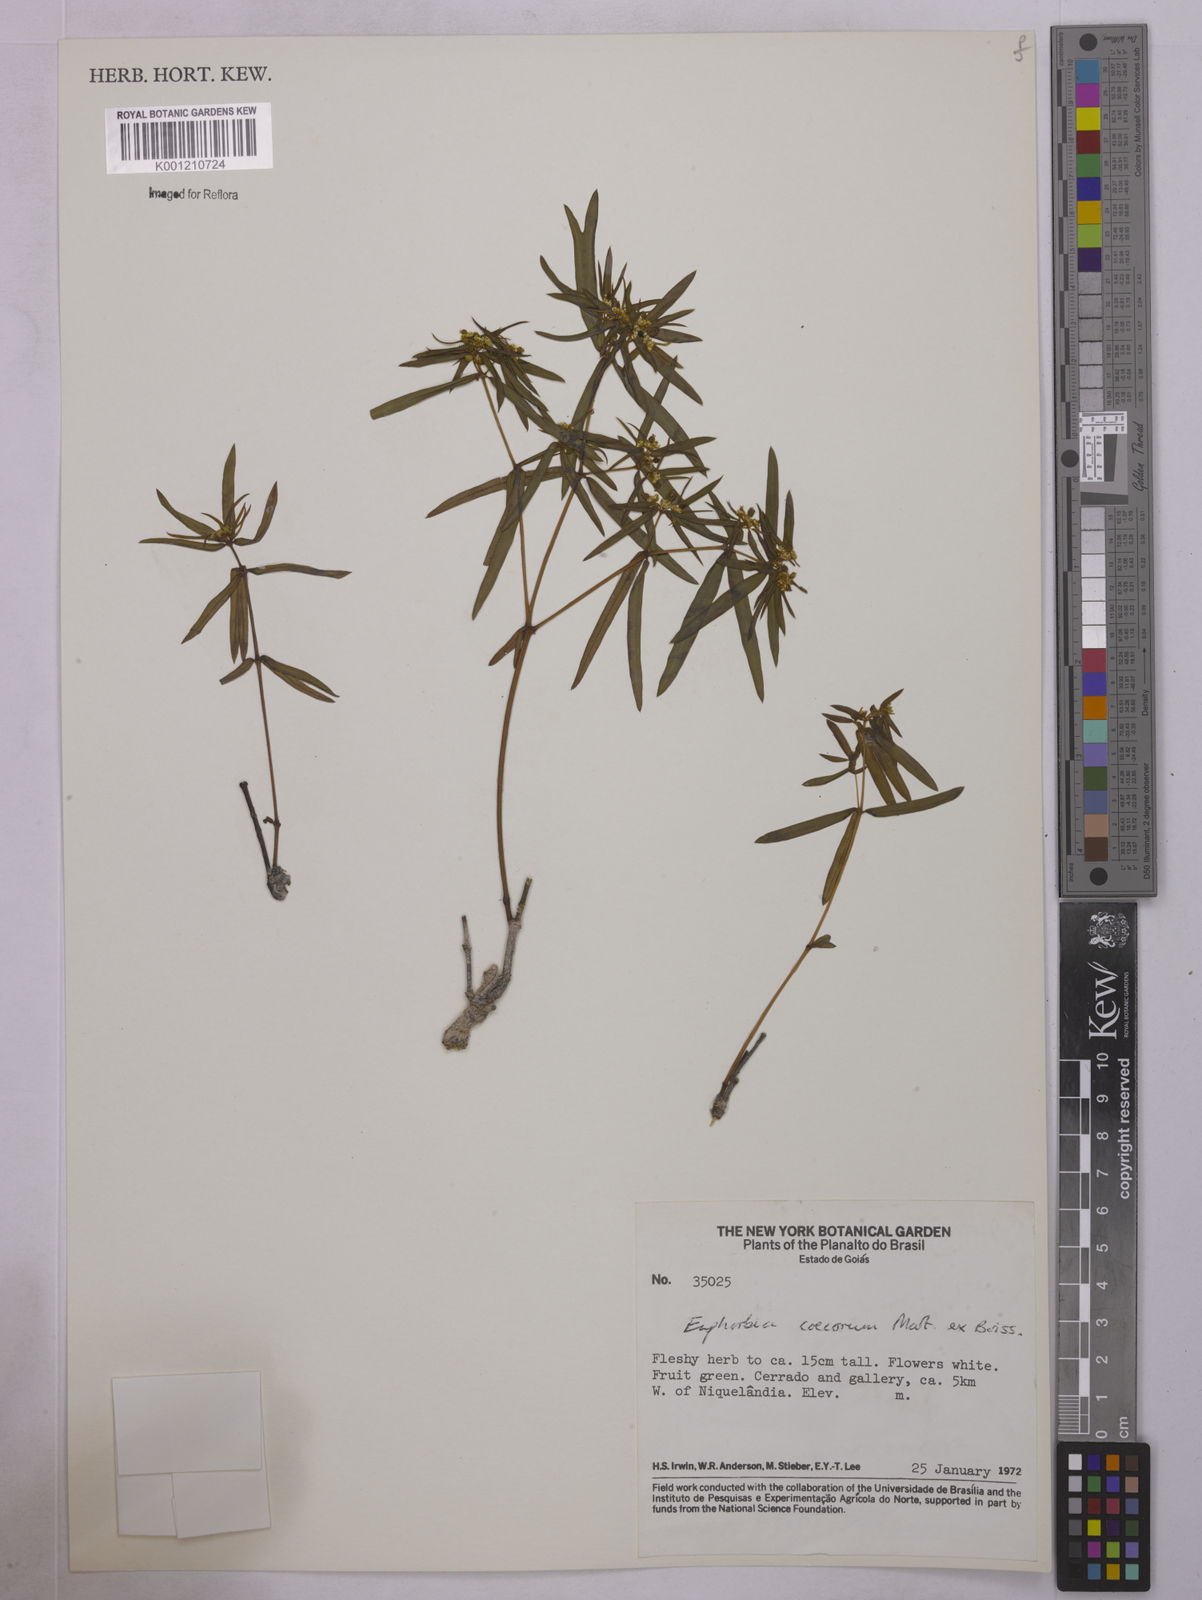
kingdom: Plantae
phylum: Tracheophyta
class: Magnoliopsida
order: Malpighiales
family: Euphorbiaceae
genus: Euphorbia
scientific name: Euphorbia potentilloides
